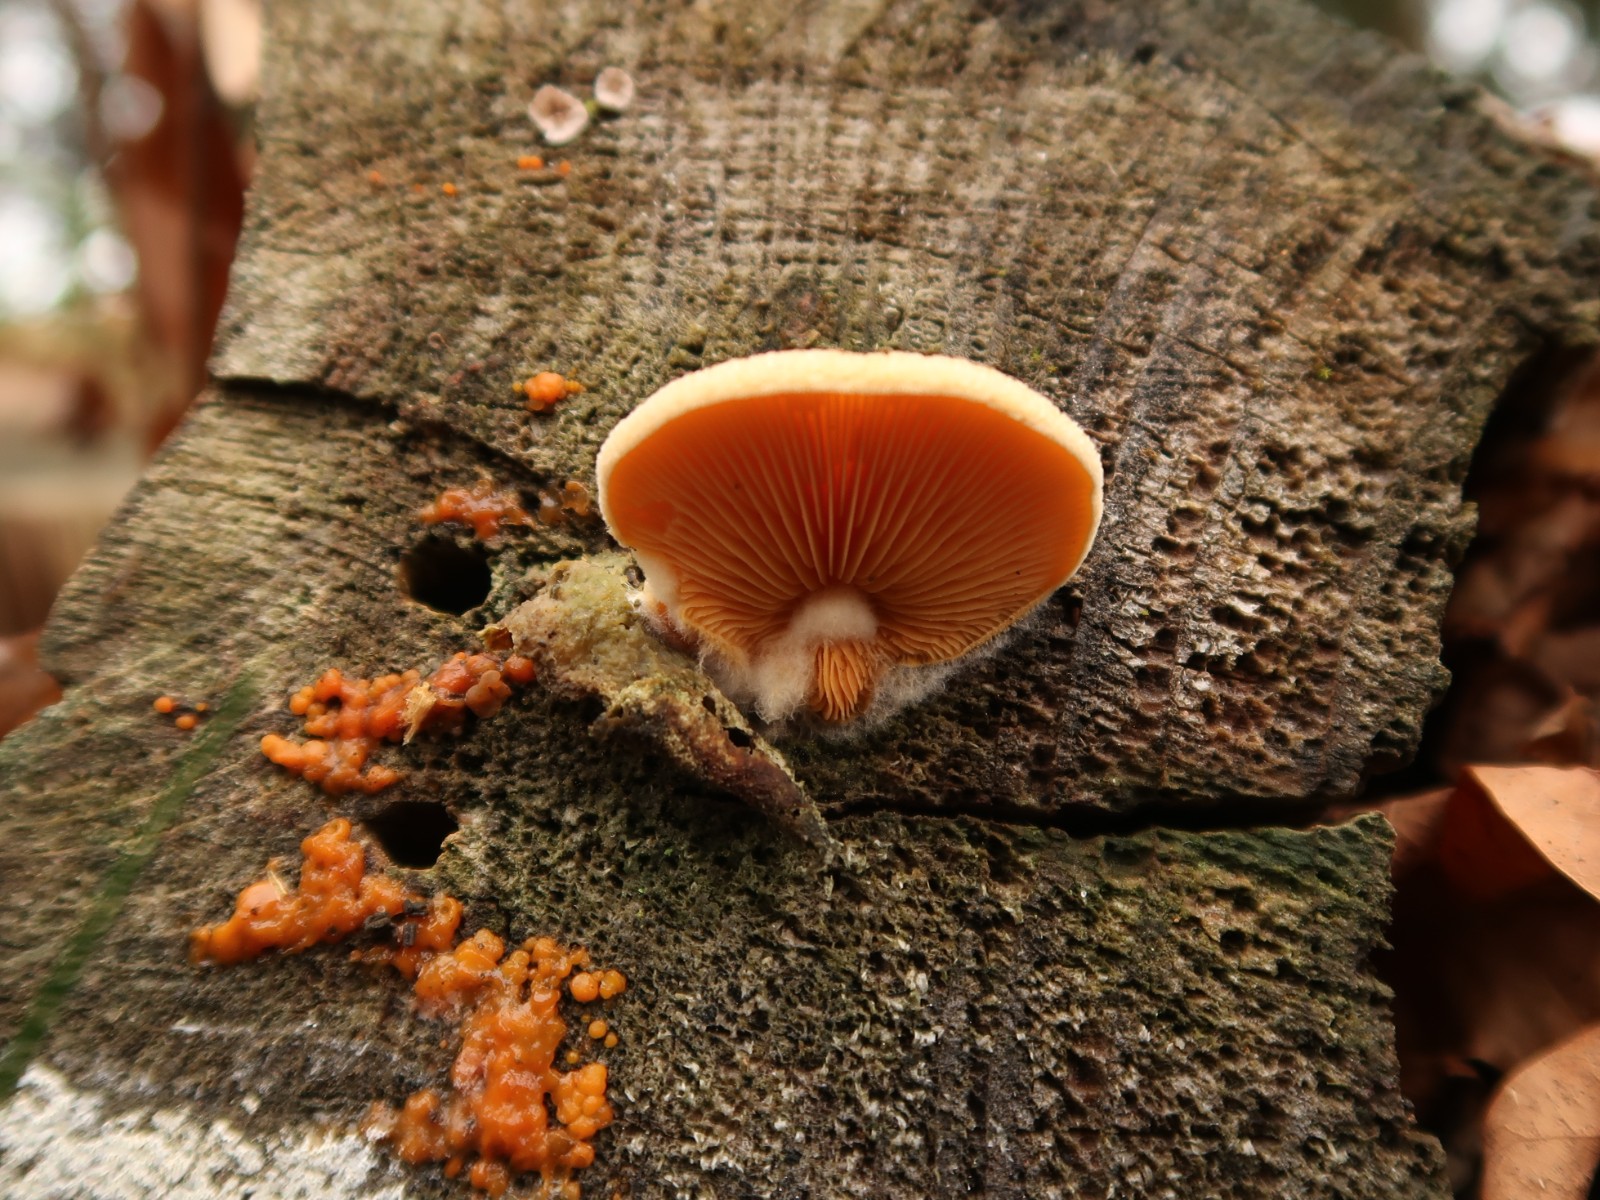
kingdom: Fungi
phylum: Basidiomycota
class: Agaricomycetes
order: Agaricales
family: Phyllotopsidaceae
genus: Phyllotopsis
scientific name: Phyllotopsis nidulans
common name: okkerblad
